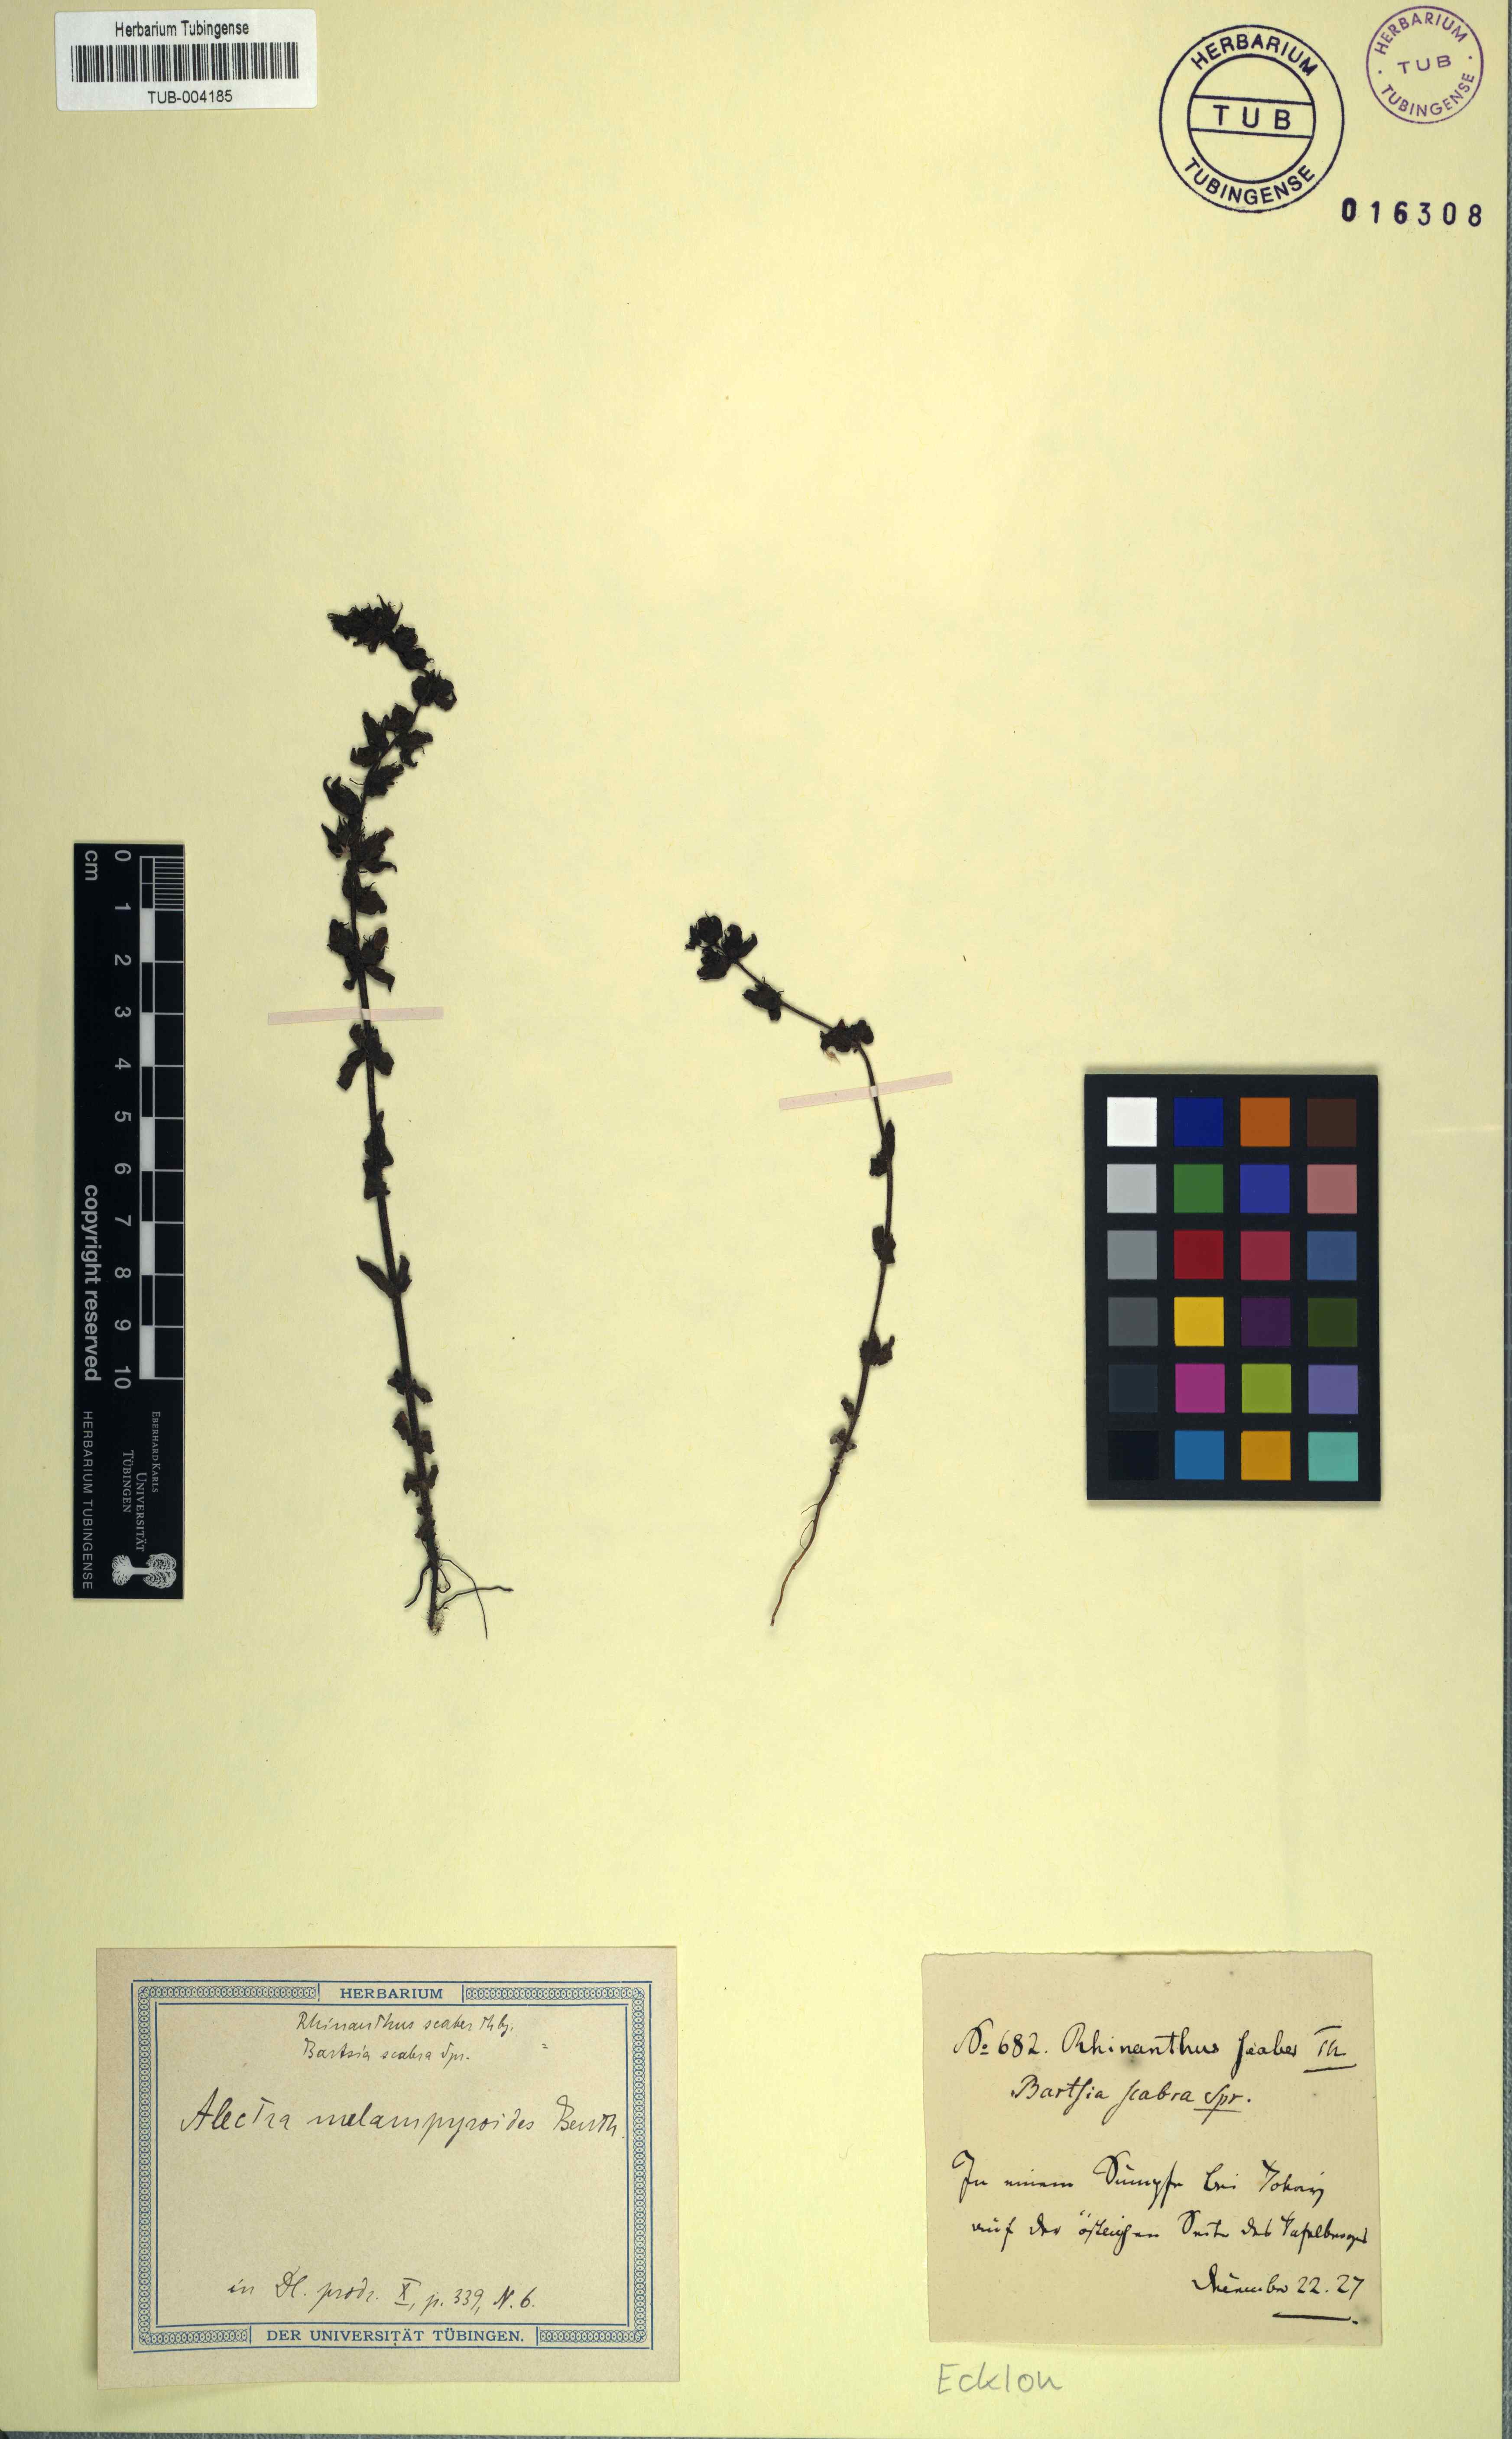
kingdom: Plantae
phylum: Tracheophyta
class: Magnoliopsida
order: Lamiales
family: Orobanchaceae
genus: Alectra
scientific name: Alectra sessiliflora
